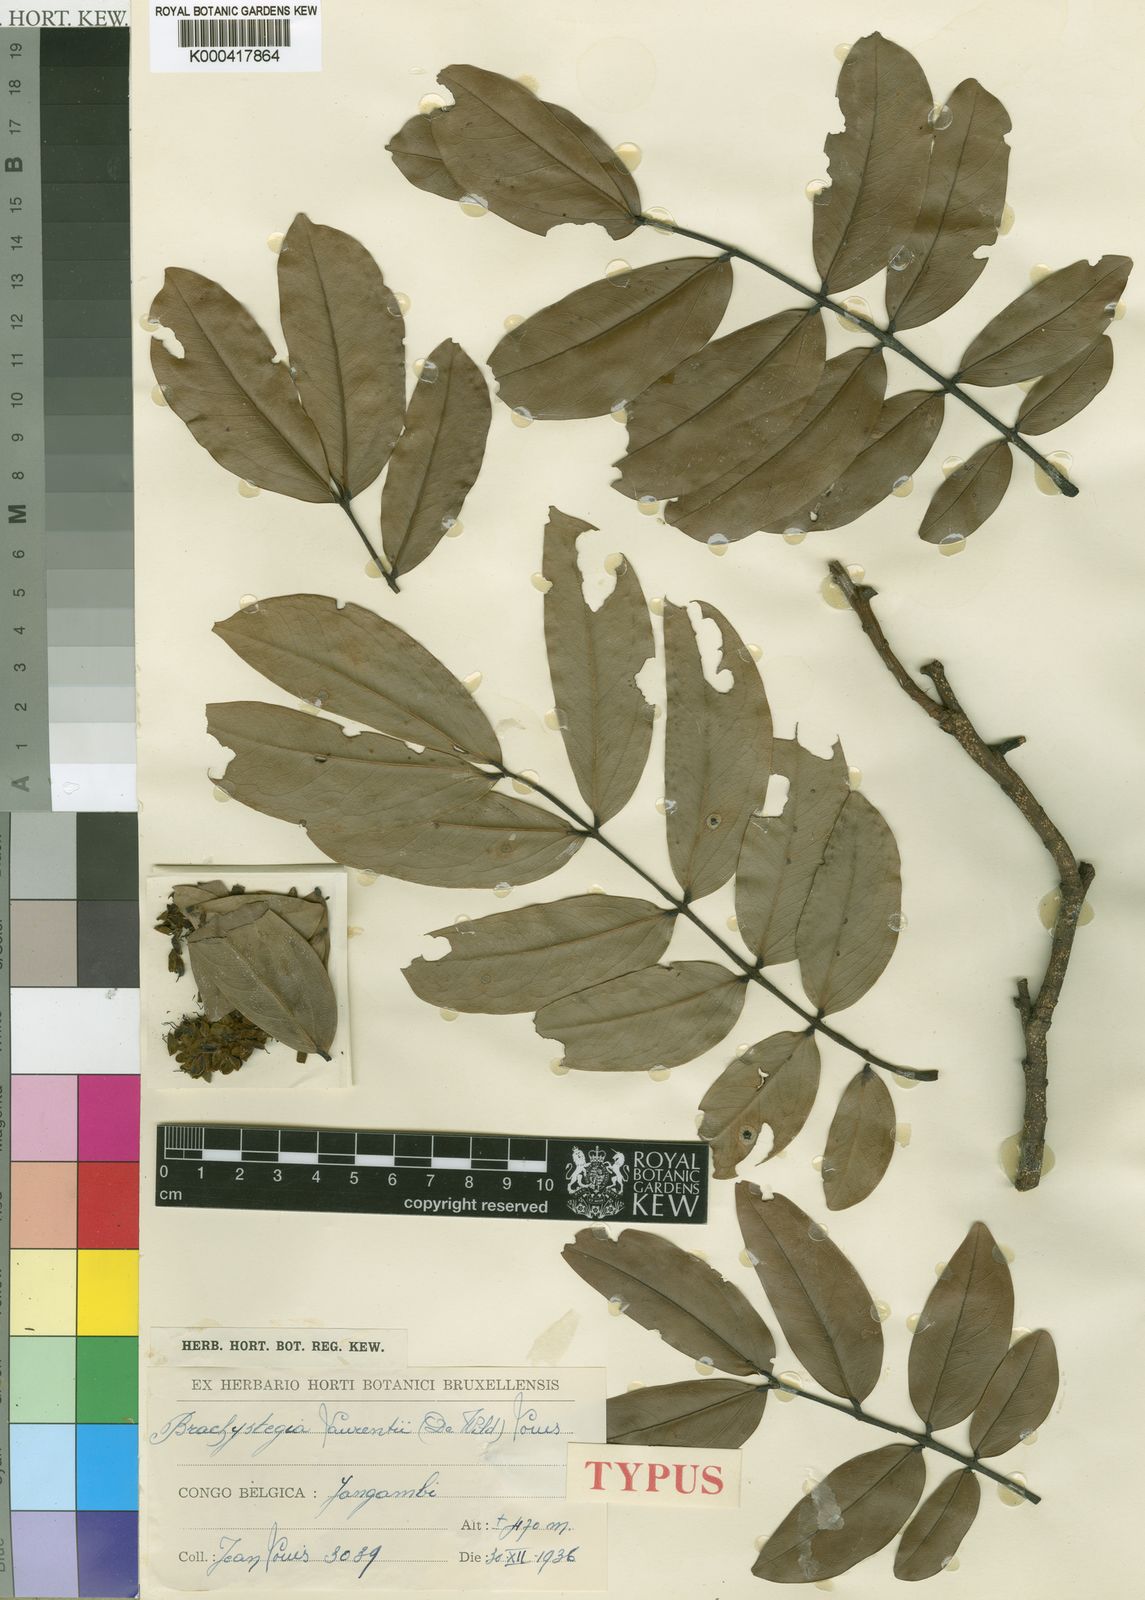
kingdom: Plantae
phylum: Tracheophyta
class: Magnoliopsida
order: Fabales
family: Fabaceae
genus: Brachystegia
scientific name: Brachystegia
